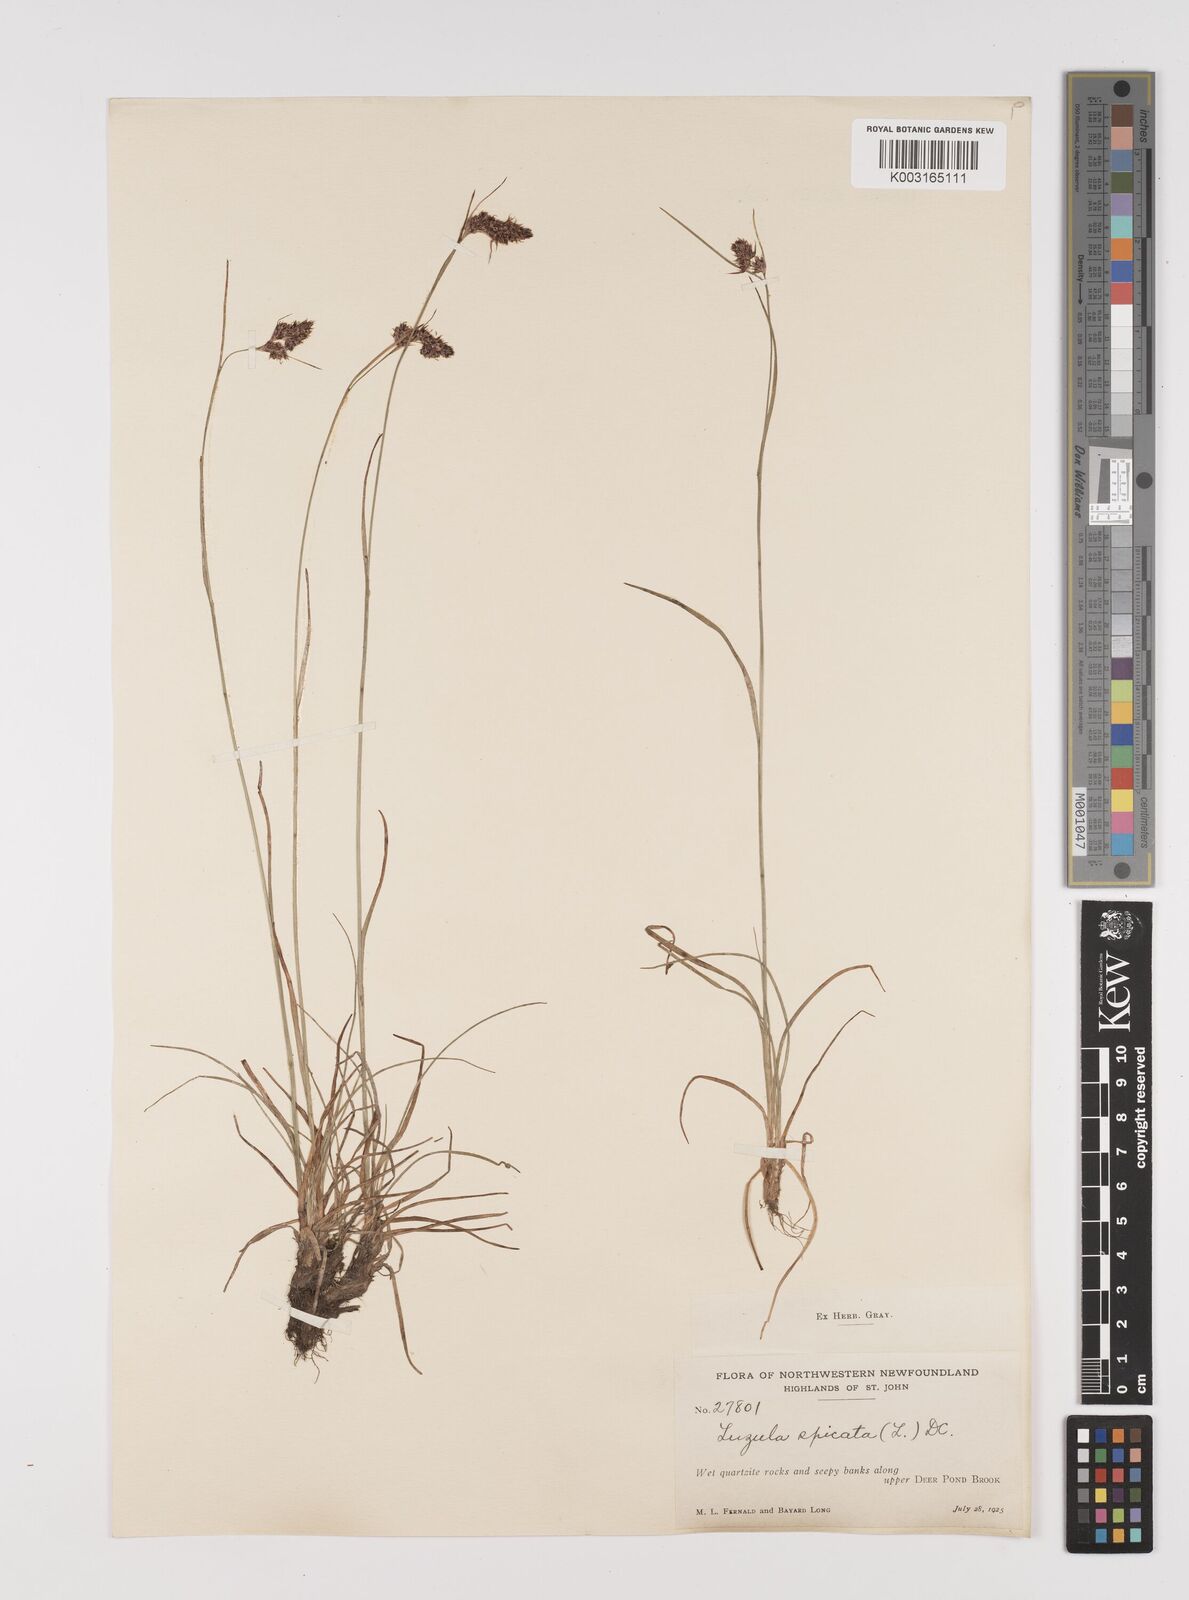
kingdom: Plantae
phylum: Tracheophyta
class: Liliopsida
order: Poales
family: Juncaceae
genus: Luzula
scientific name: Luzula spicata
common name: Spiked wood-rush
